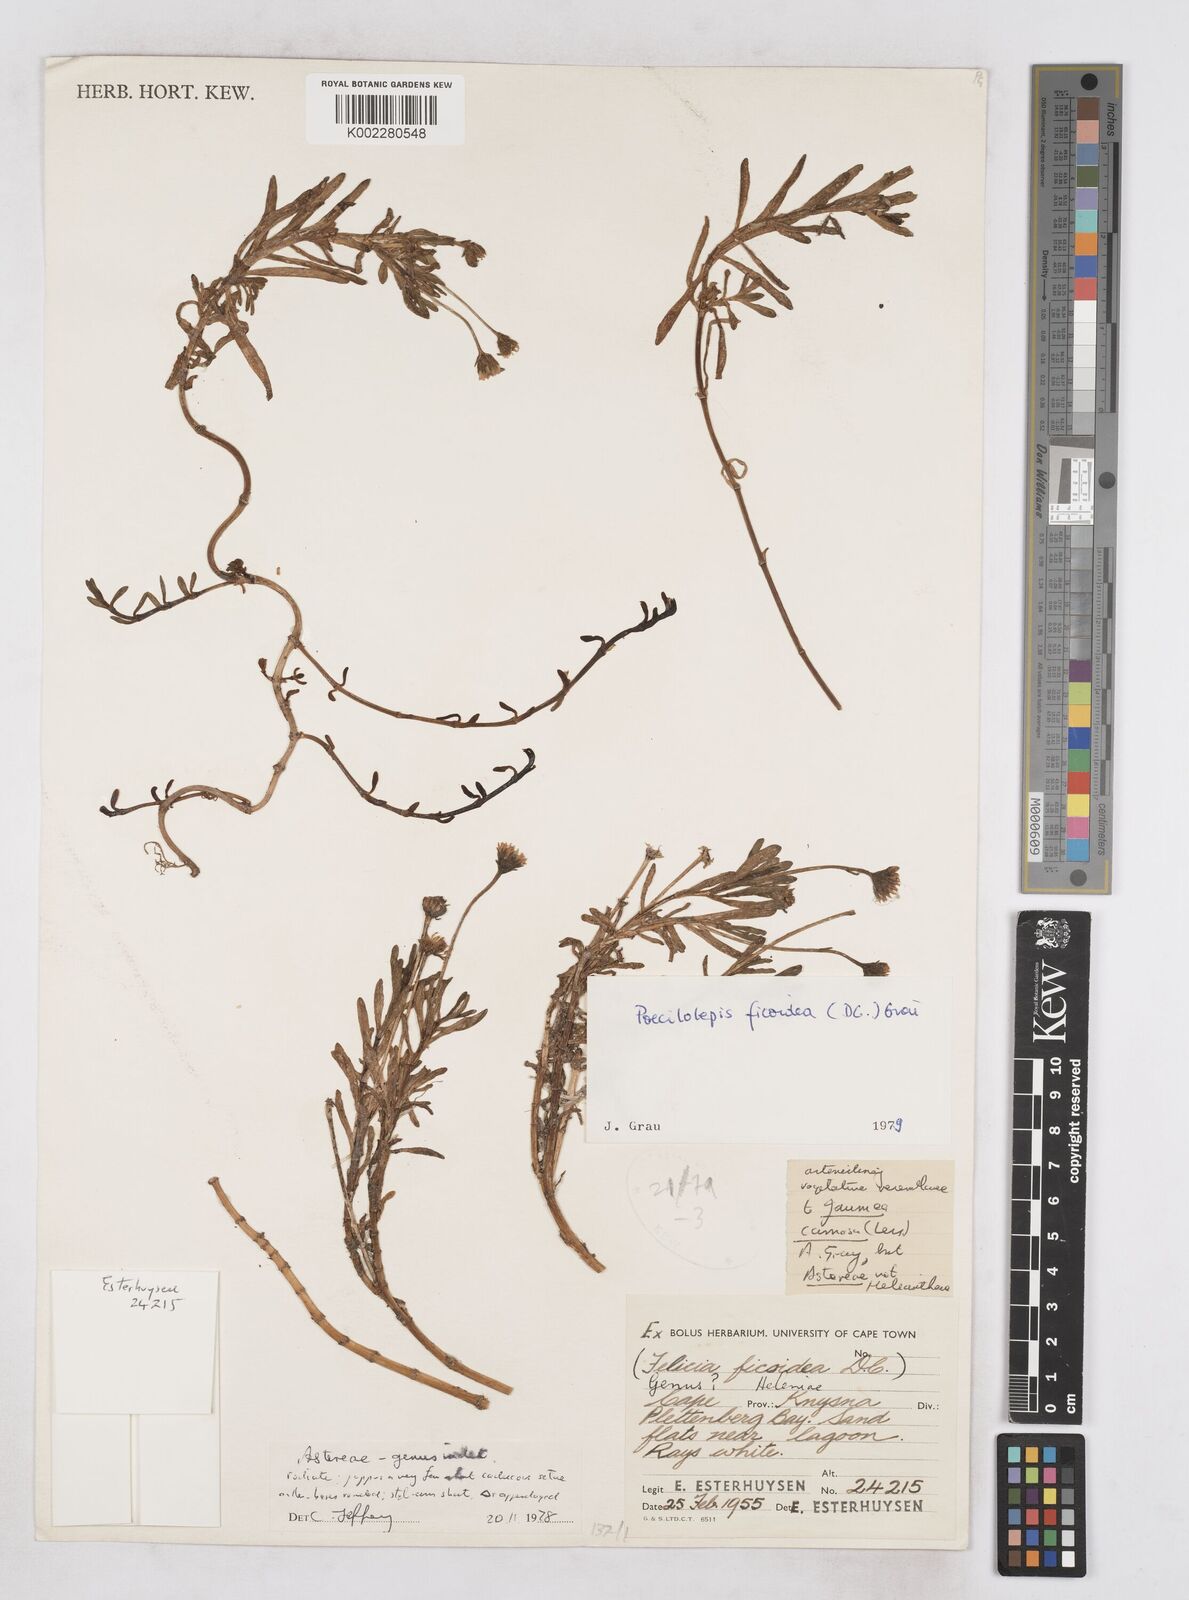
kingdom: Plantae
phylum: Tracheophyta
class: Magnoliopsida
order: Asterales
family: Asteraceae
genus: Poecilolepis
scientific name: Poecilolepis ficoidea
